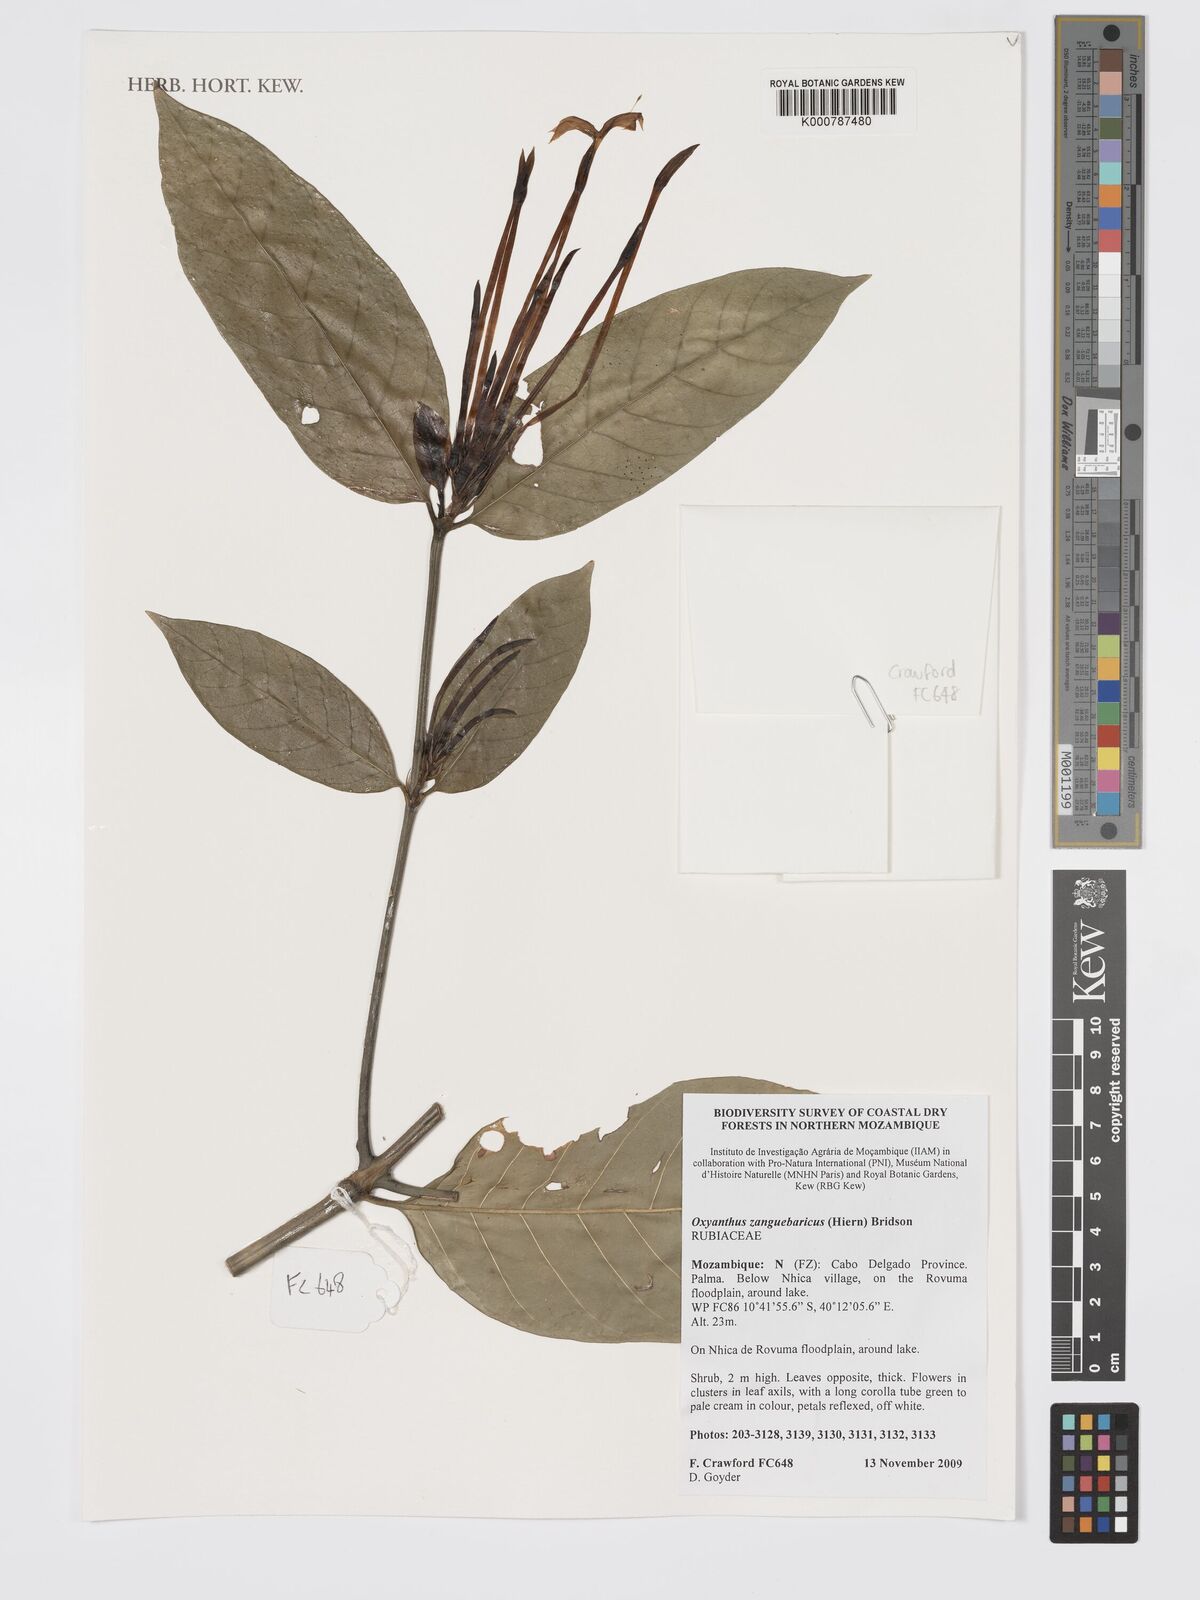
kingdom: Plantae
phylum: Tracheophyta
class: Magnoliopsida
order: Gentianales
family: Rubiaceae
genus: Oxyanthus
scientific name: Oxyanthus zanguebaricus
